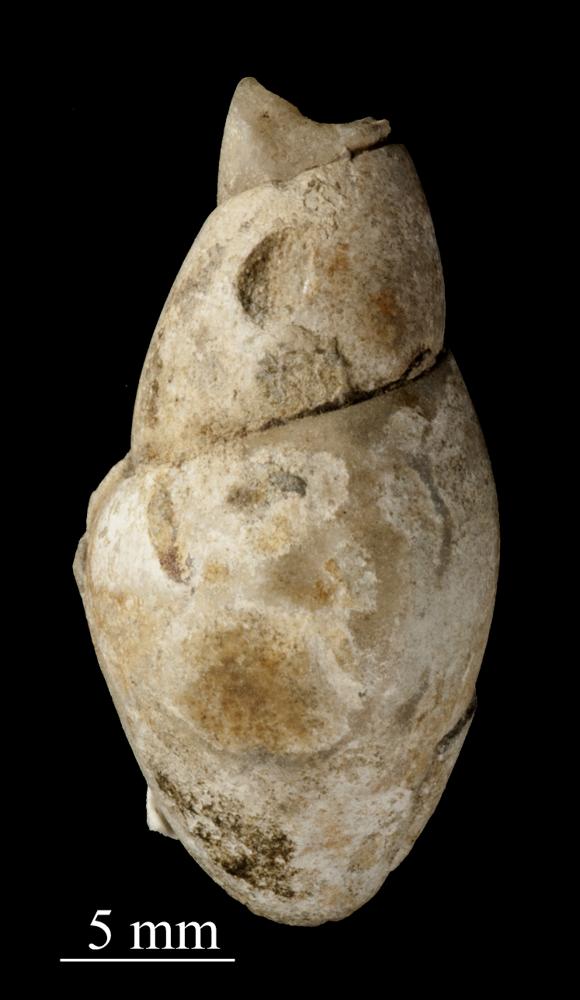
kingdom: Animalia
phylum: Mollusca
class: Gastropoda
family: Subulitidae
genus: Subulites
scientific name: Subulites priscus
